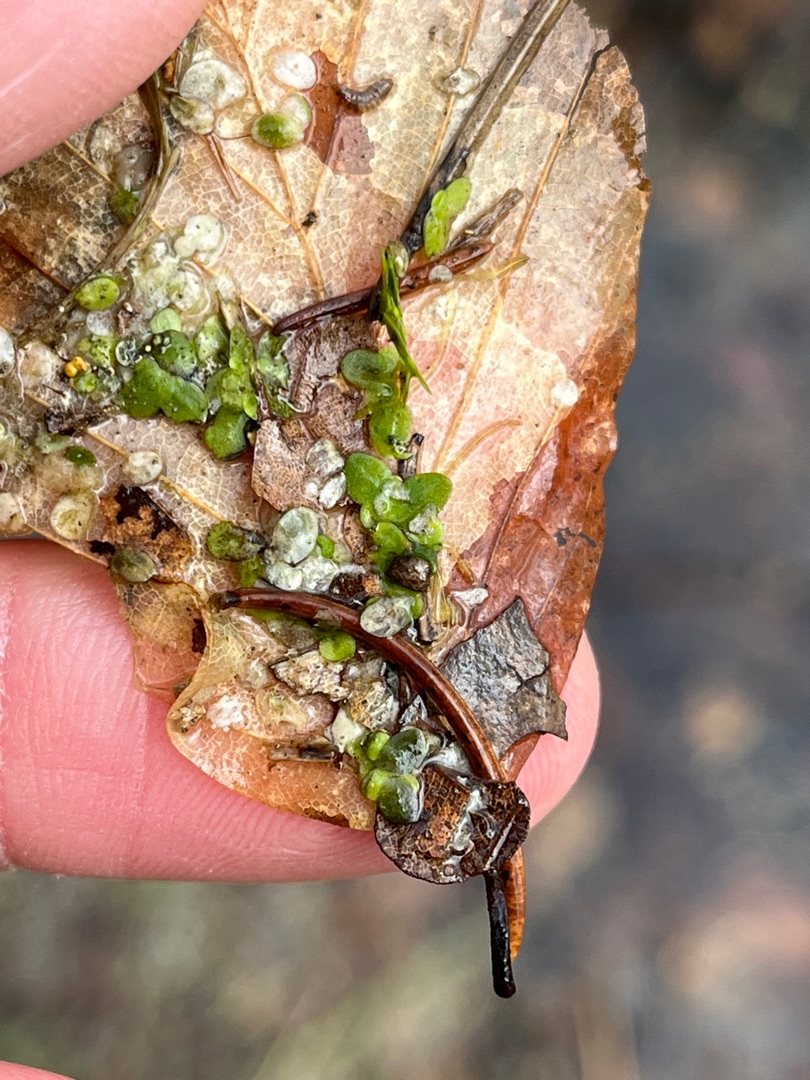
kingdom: Plantae
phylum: Tracheophyta
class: Liliopsida
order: Alismatales
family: Araceae
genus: Lemna
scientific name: Lemna minor
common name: Liden andemad
